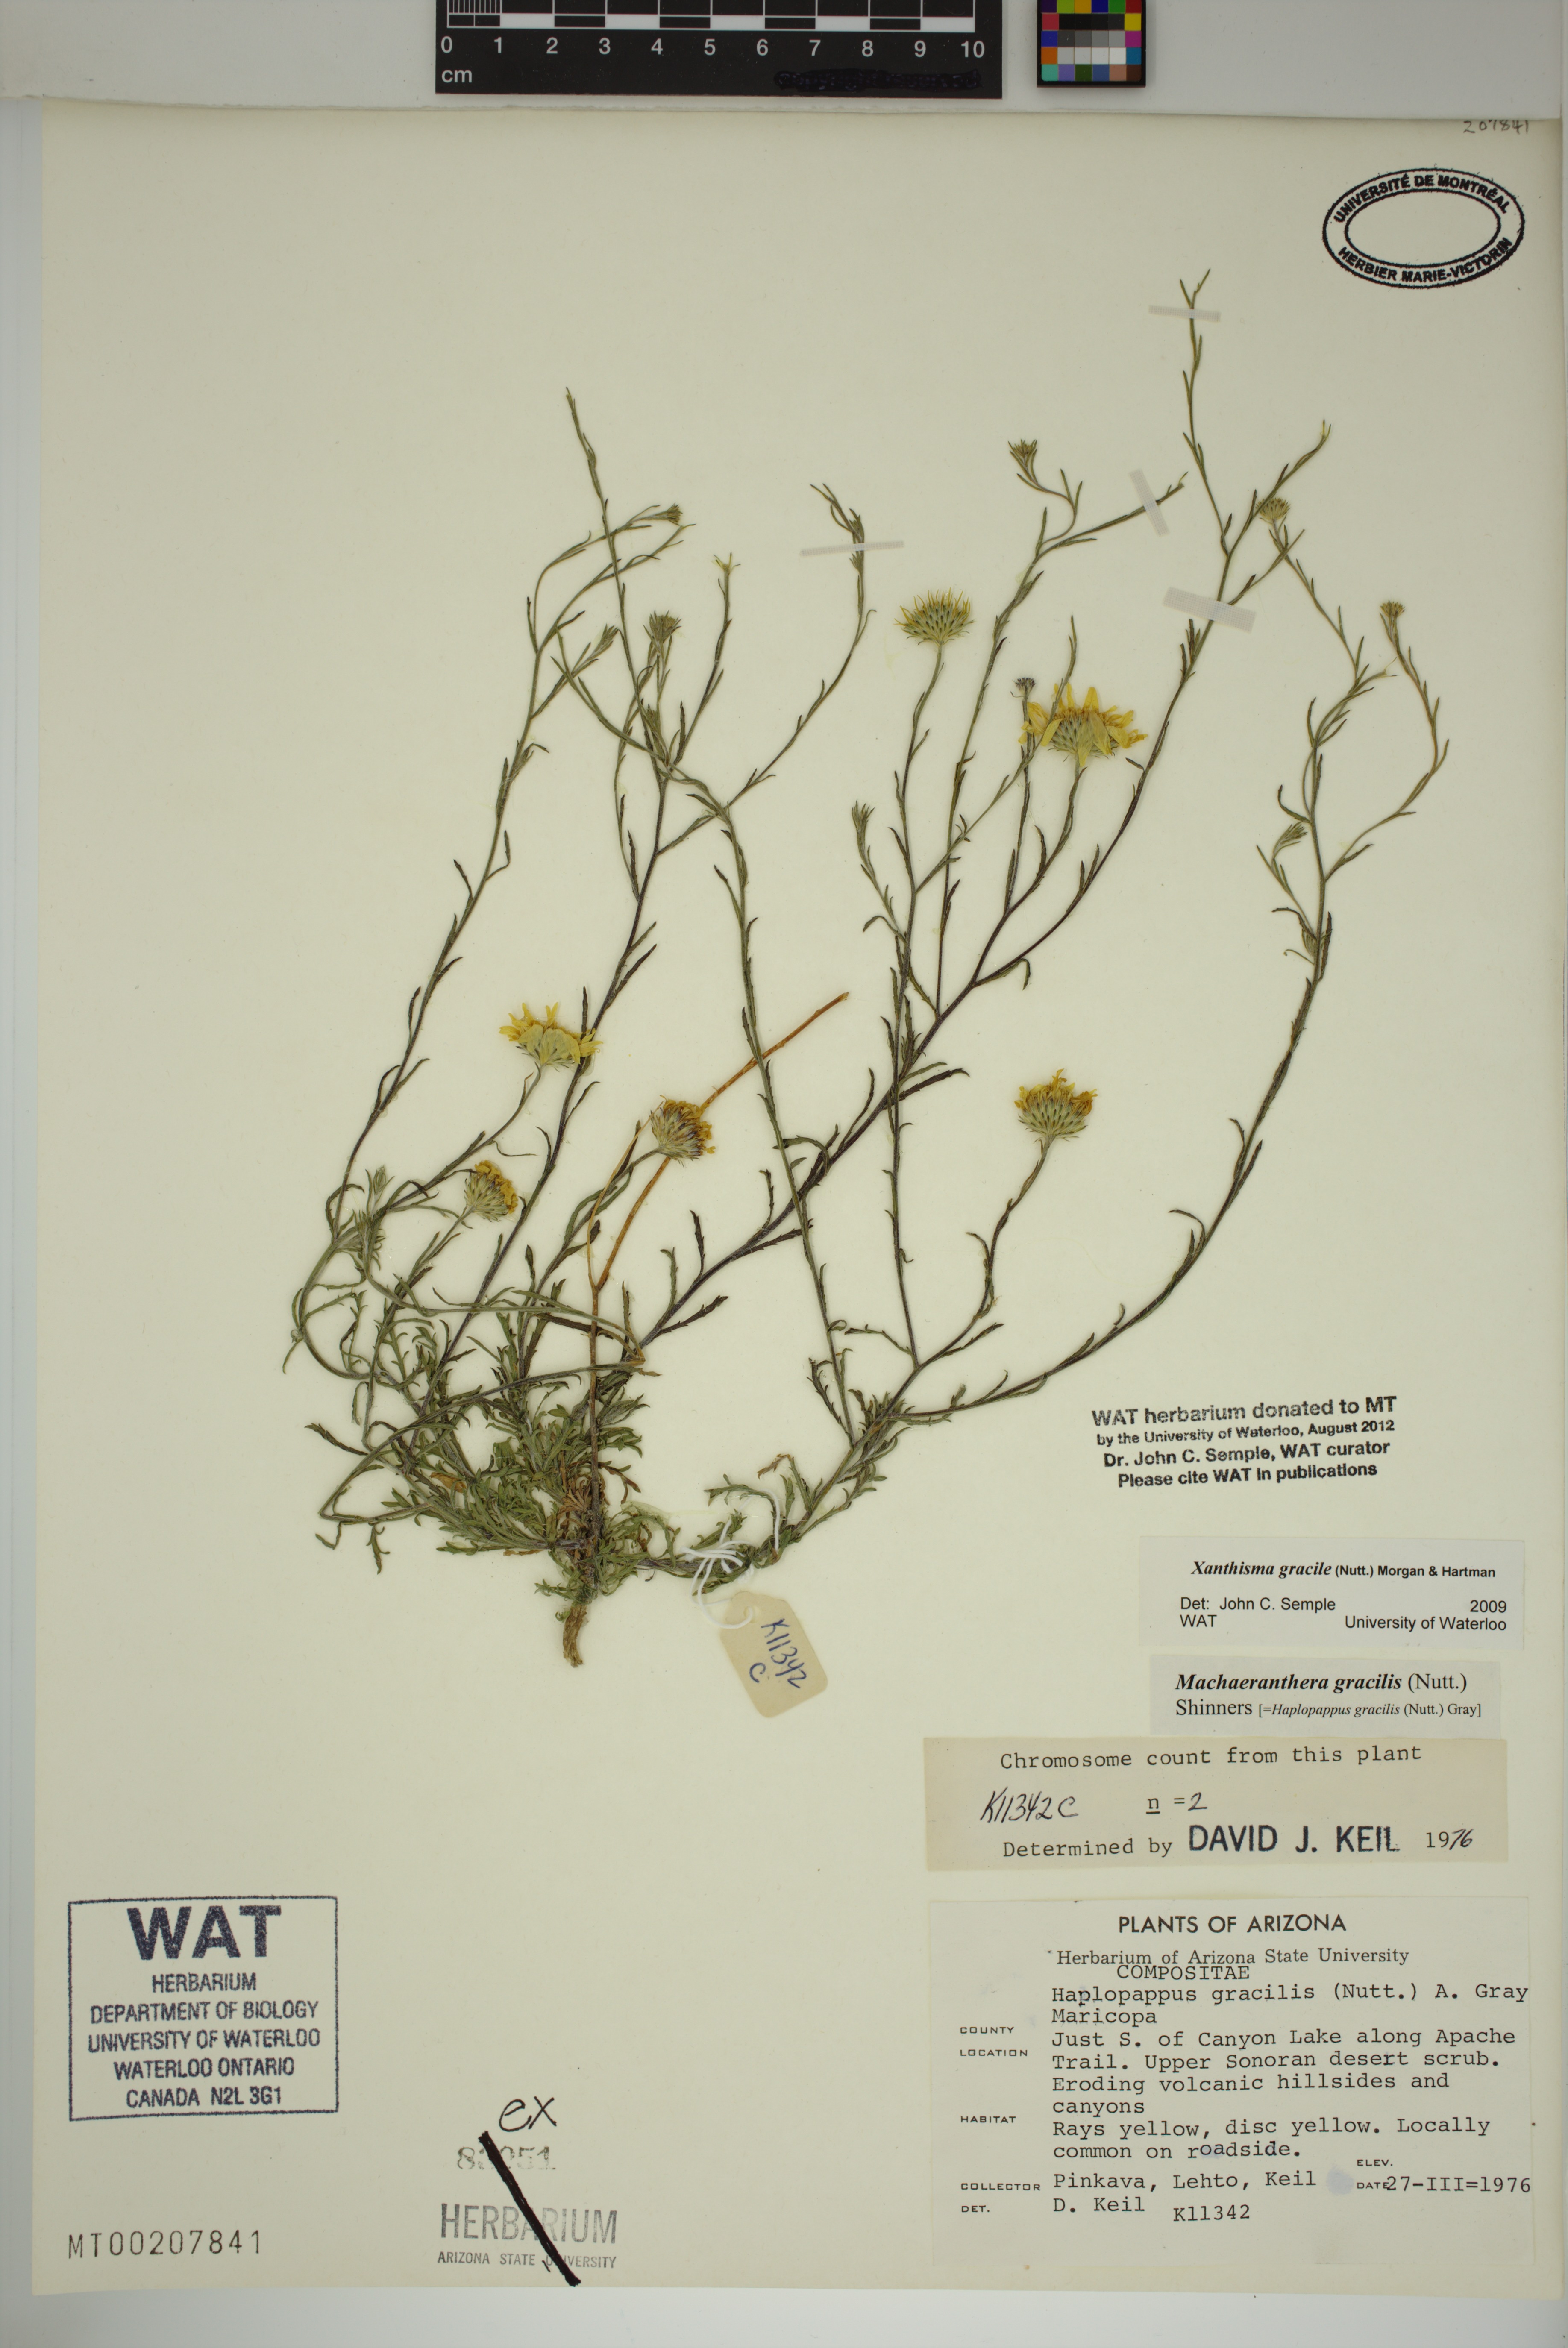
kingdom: Plantae
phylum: Tracheophyta
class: Magnoliopsida
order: Asterales
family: Asteraceae
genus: Xanthisma
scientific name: Xanthisma gracile
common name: Slender goldenweed
